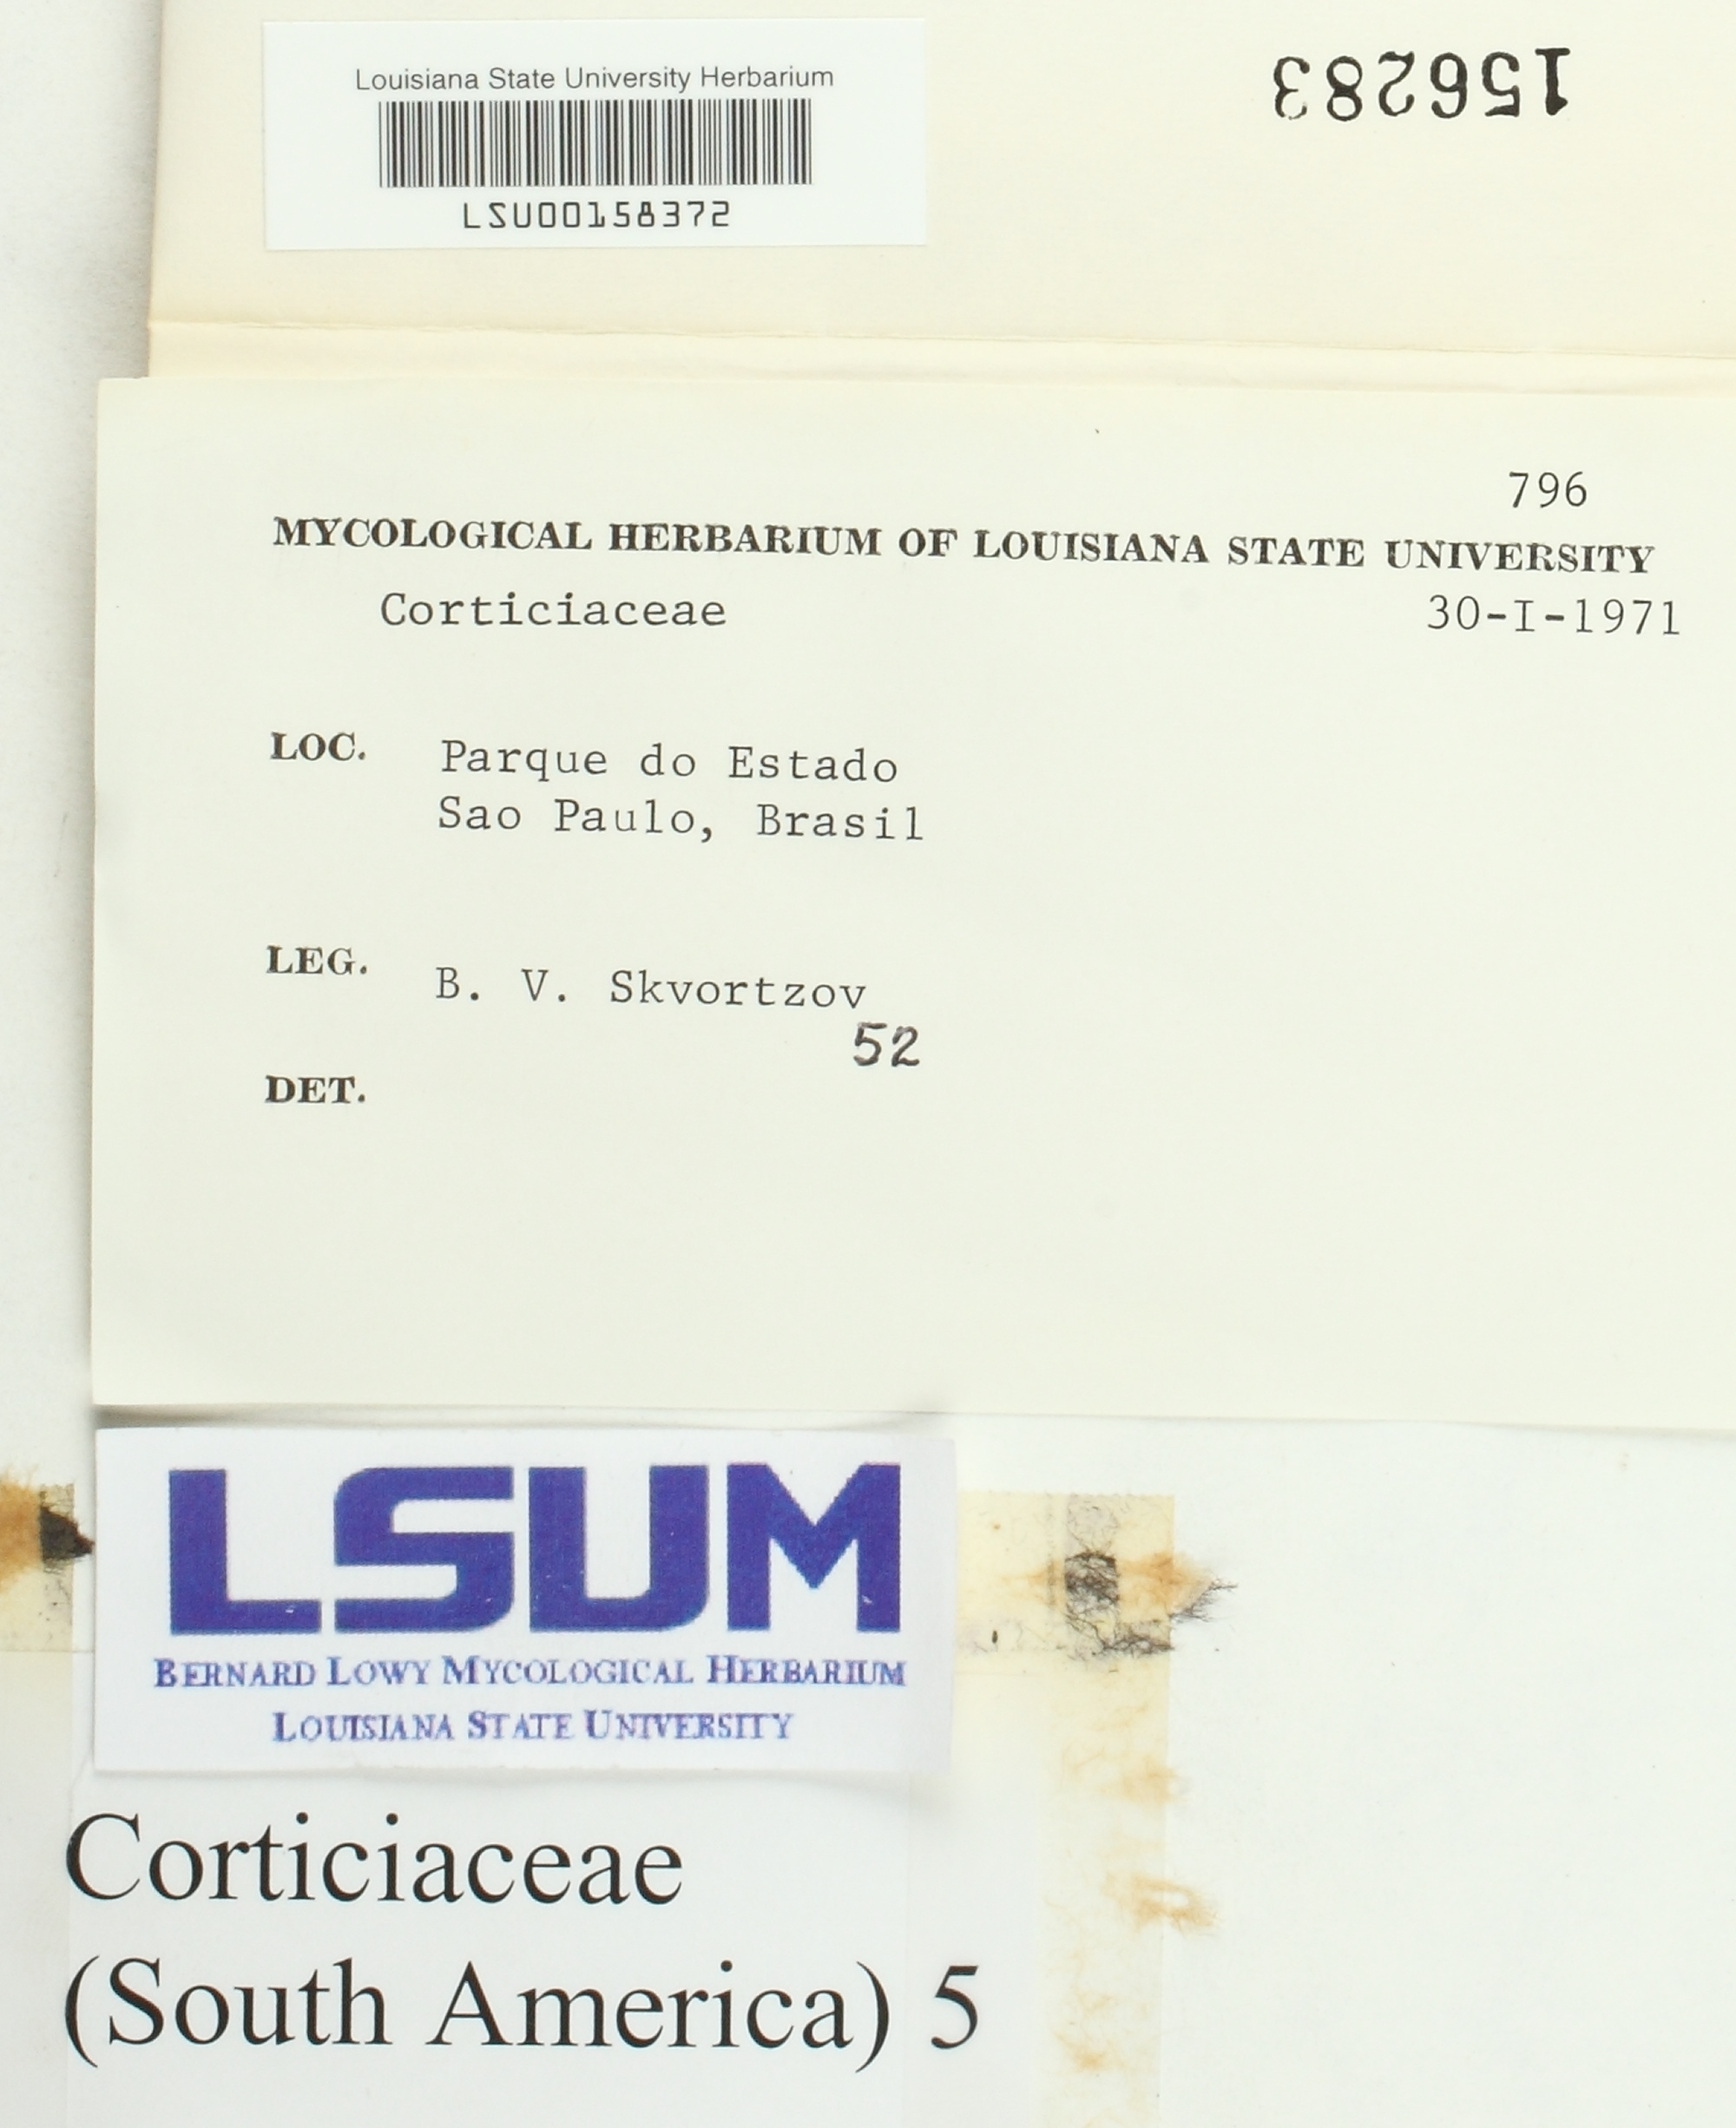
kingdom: Fungi
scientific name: Fungi
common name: Fungi
